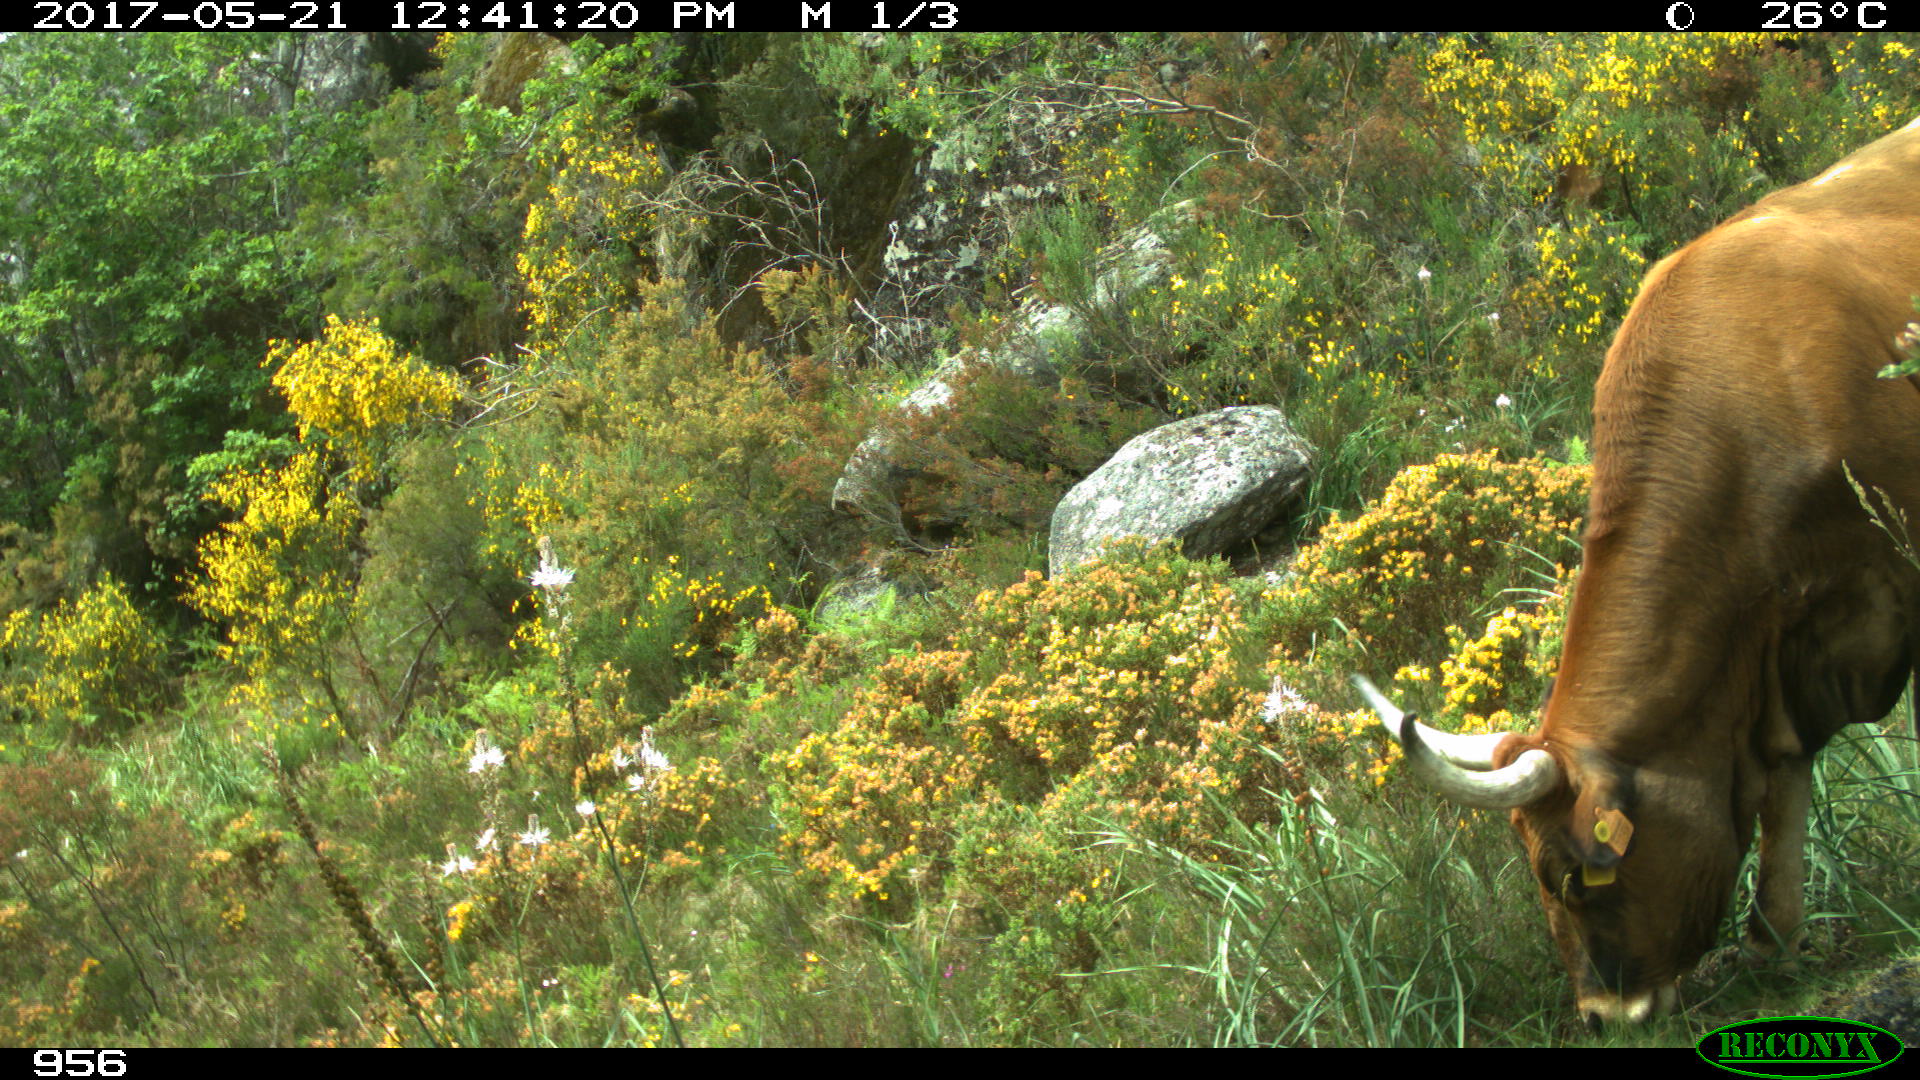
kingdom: Animalia
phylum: Chordata
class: Mammalia
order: Artiodactyla
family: Bovidae
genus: Bos
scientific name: Bos taurus
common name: Domesticated cattle
